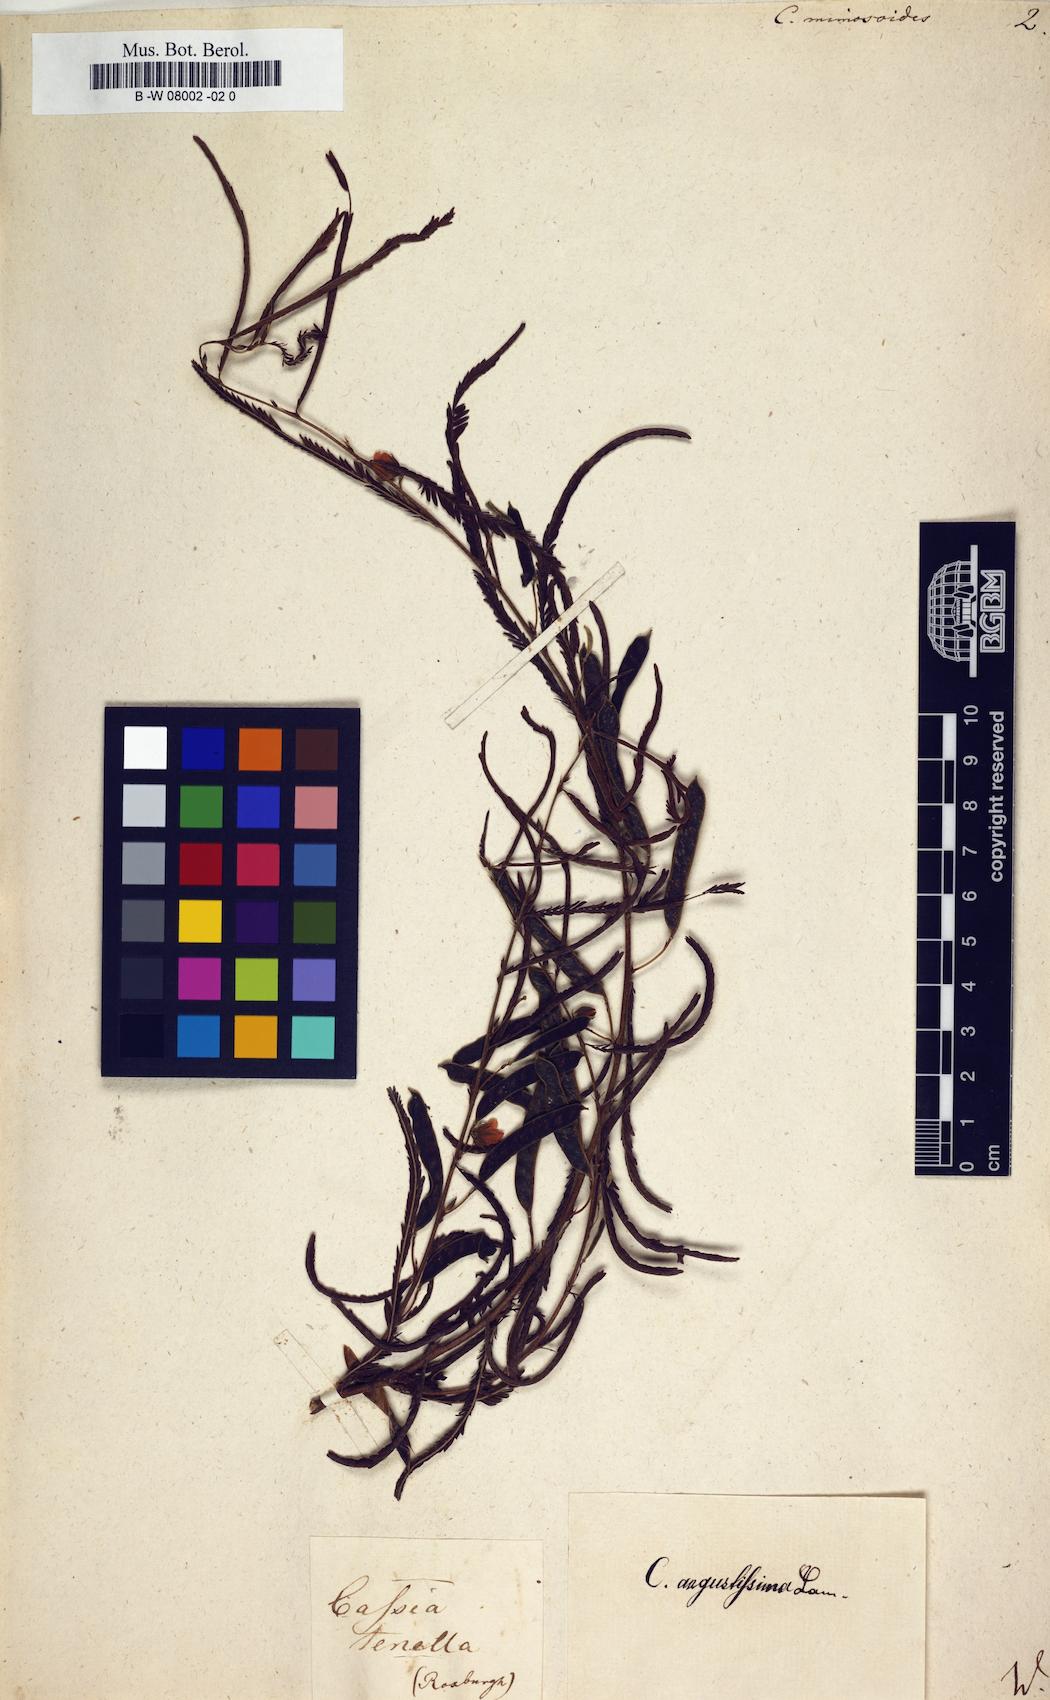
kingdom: Plantae
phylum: Tracheophyta
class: Magnoliopsida
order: Fabales
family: Fabaceae
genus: Cassia
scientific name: Cassia mimosoides
